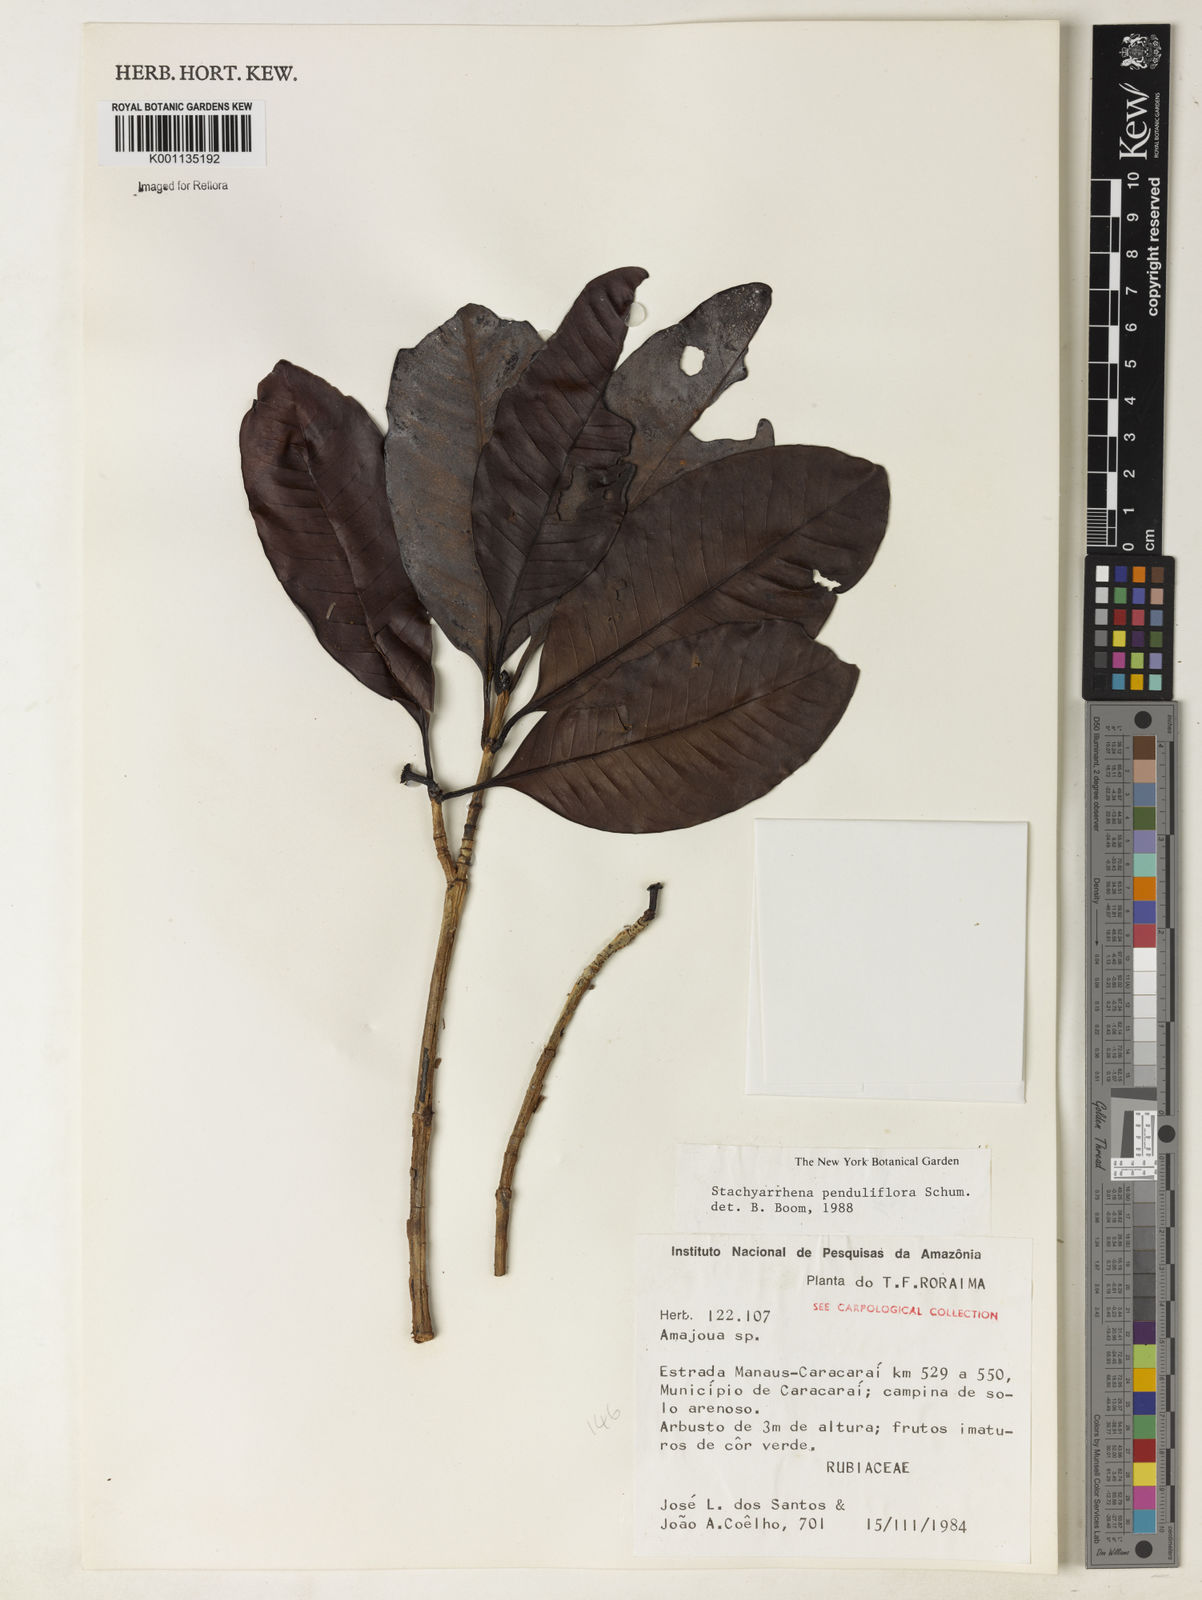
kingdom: Plantae
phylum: Tracheophyta
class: Magnoliopsida
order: Gentianales
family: Rubiaceae
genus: Stachyarrhena
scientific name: Stachyarrhena penduliflora
